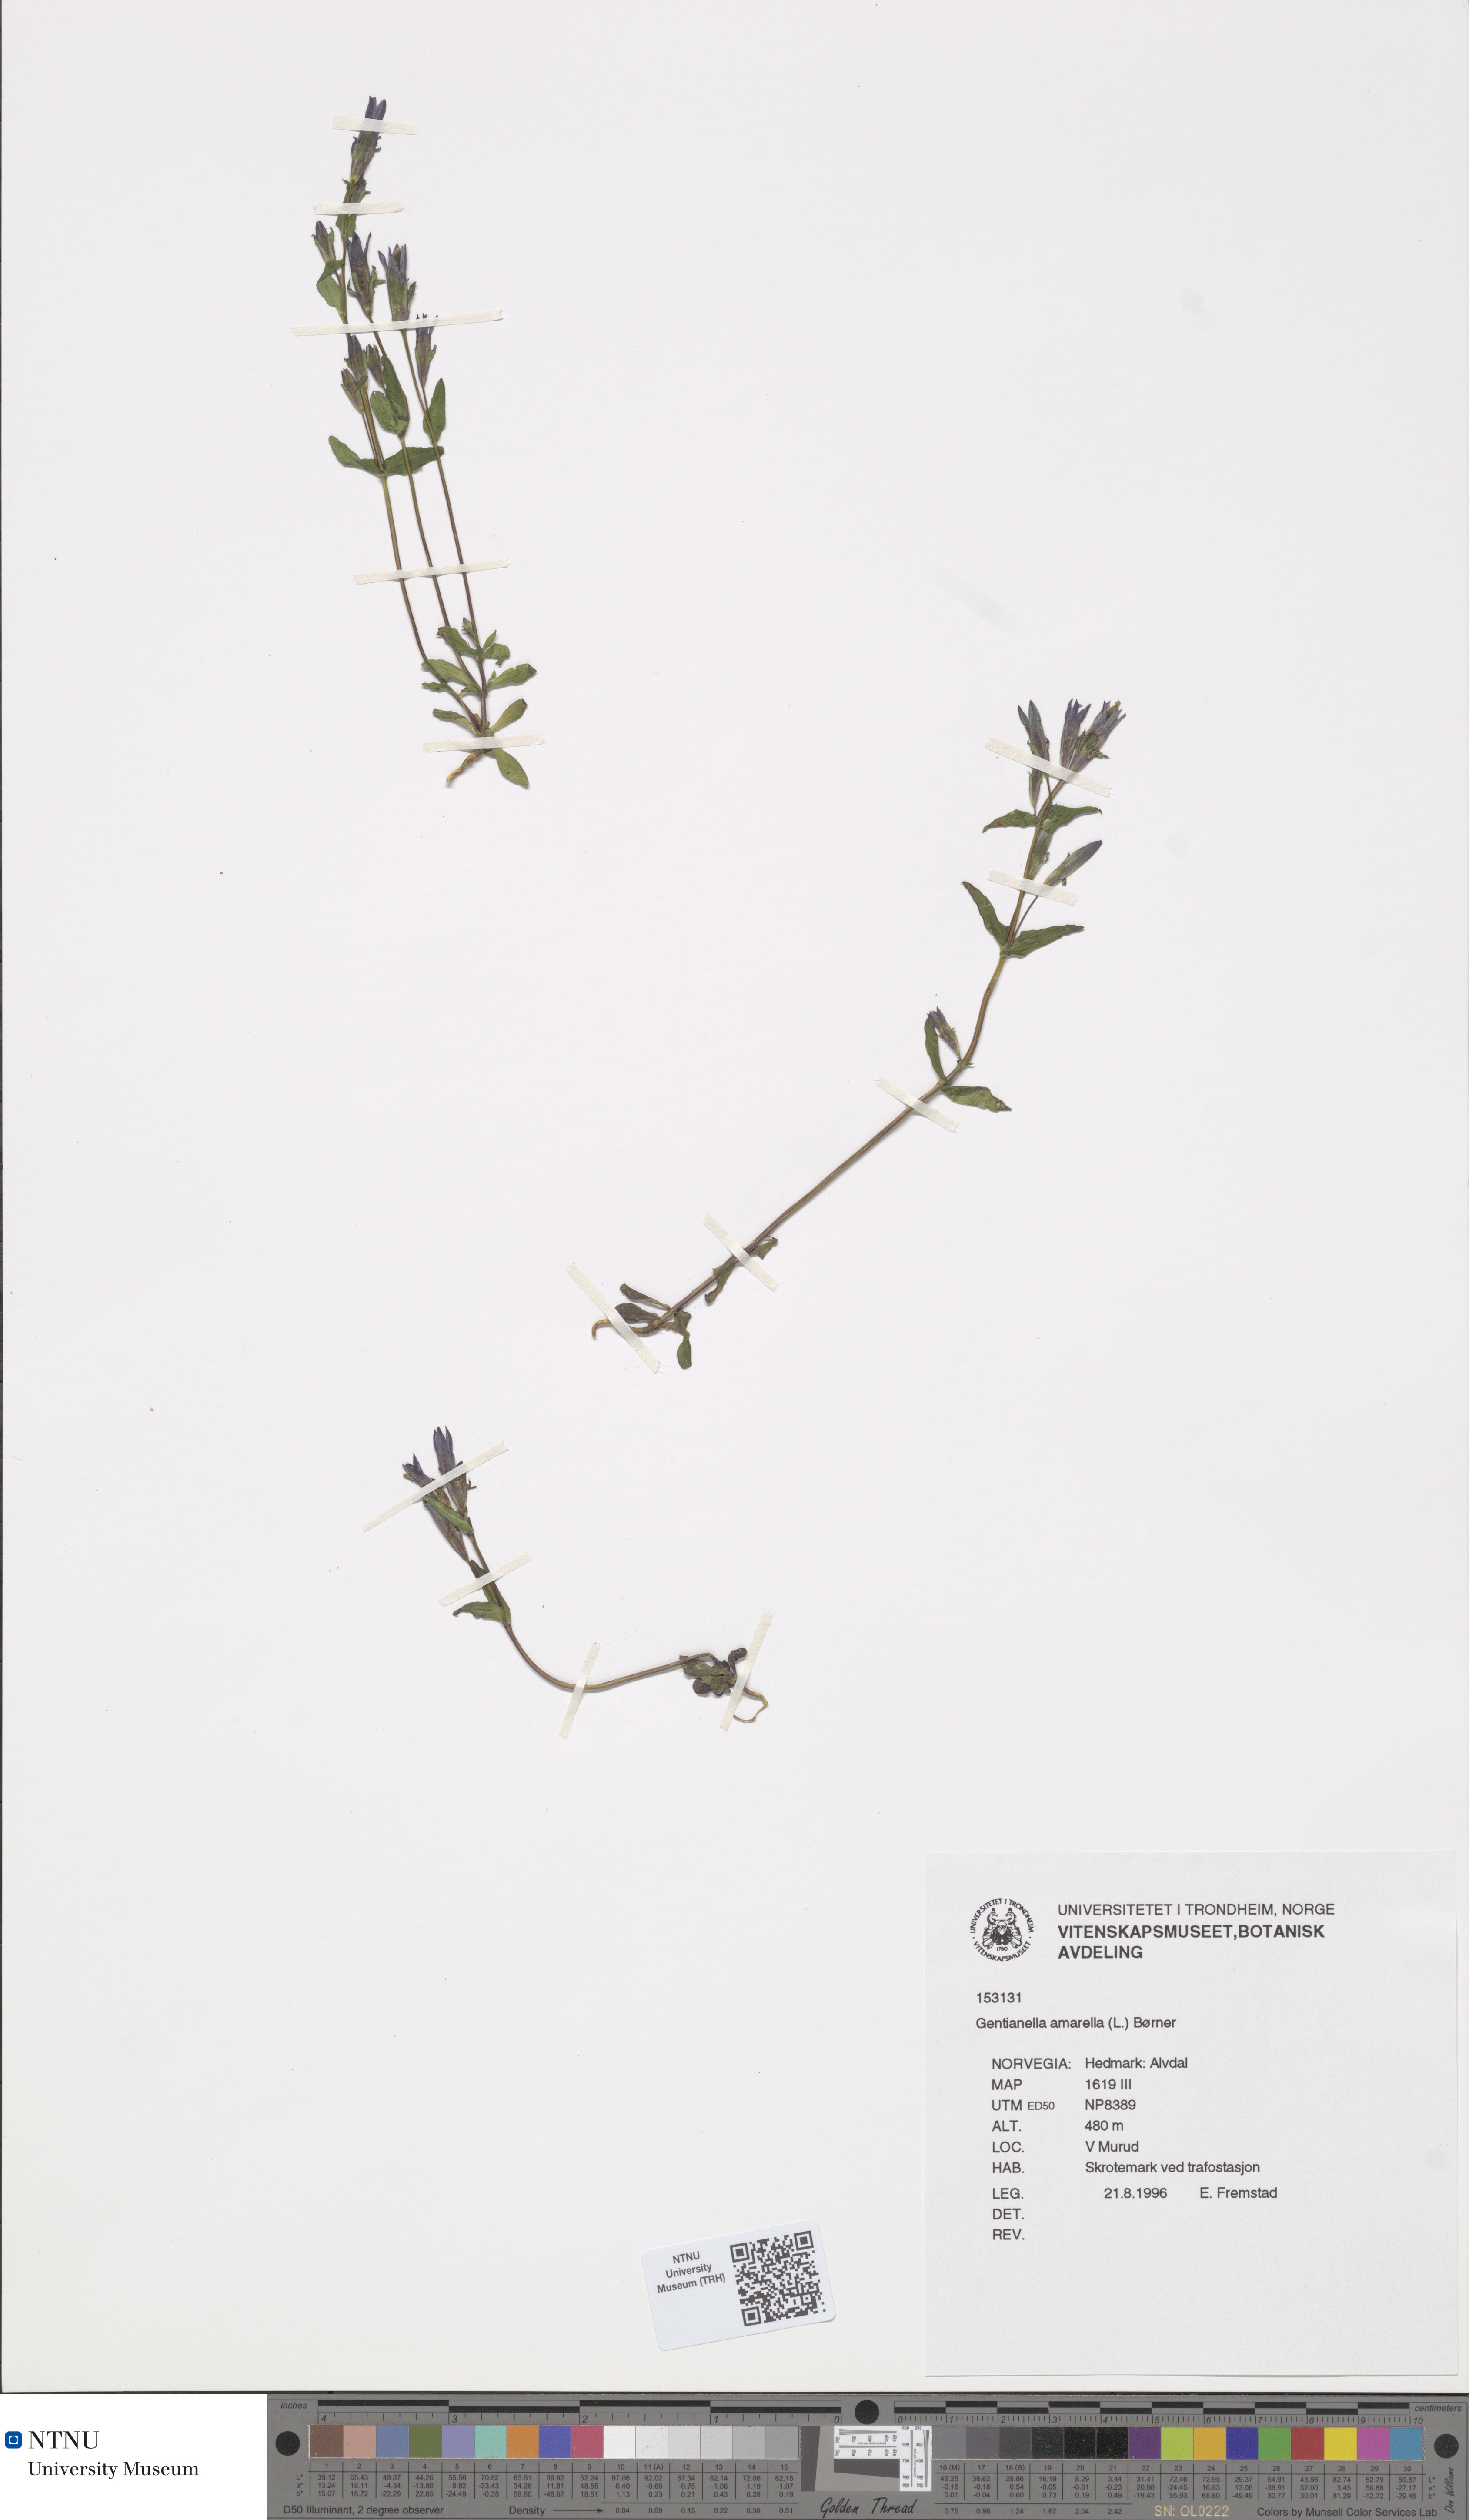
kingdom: Plantae
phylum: Tracheophyta
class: Magnoliopsida
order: Gentianales
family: Gentianaceae
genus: Gentianella
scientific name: Gentianella amarella
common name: Autumn gentian
